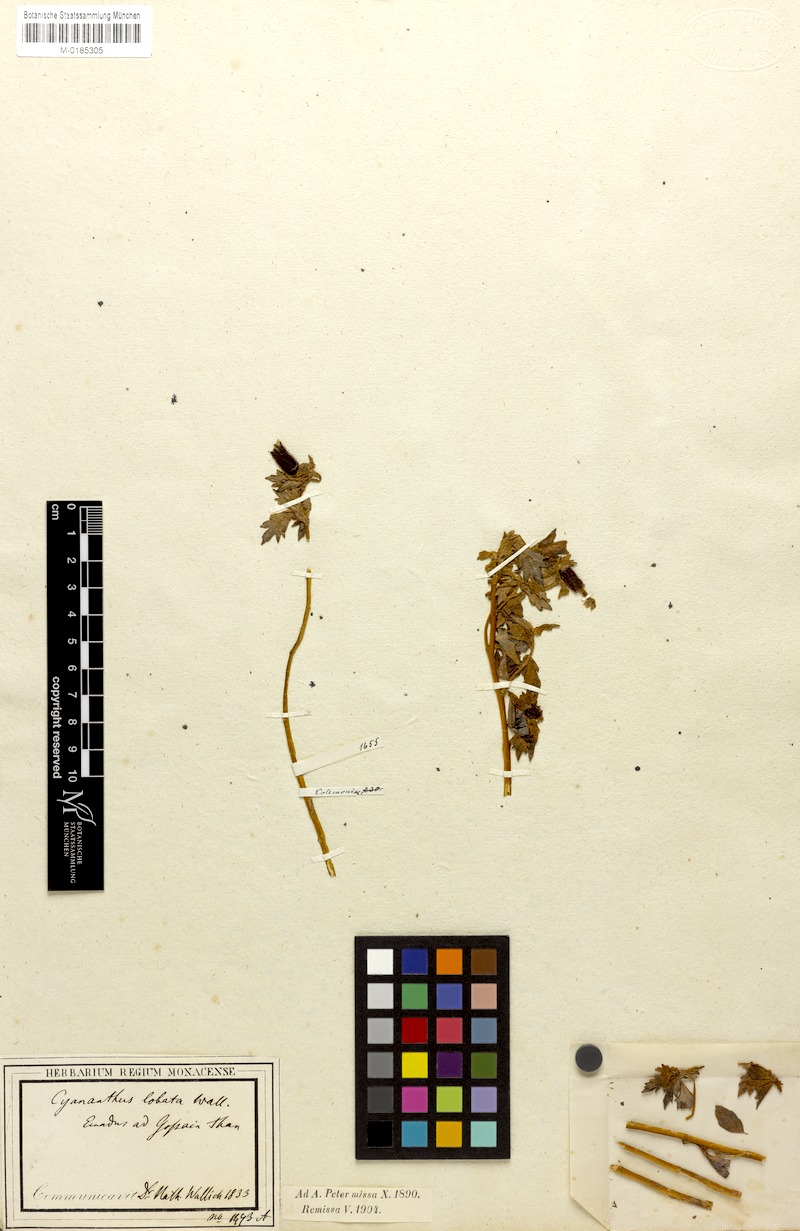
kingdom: Plantae
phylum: Tracheophyta
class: Magnoliopsida
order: Asterales
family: Campanulaceae
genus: Cyananthus
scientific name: Cyananthus lobatus
